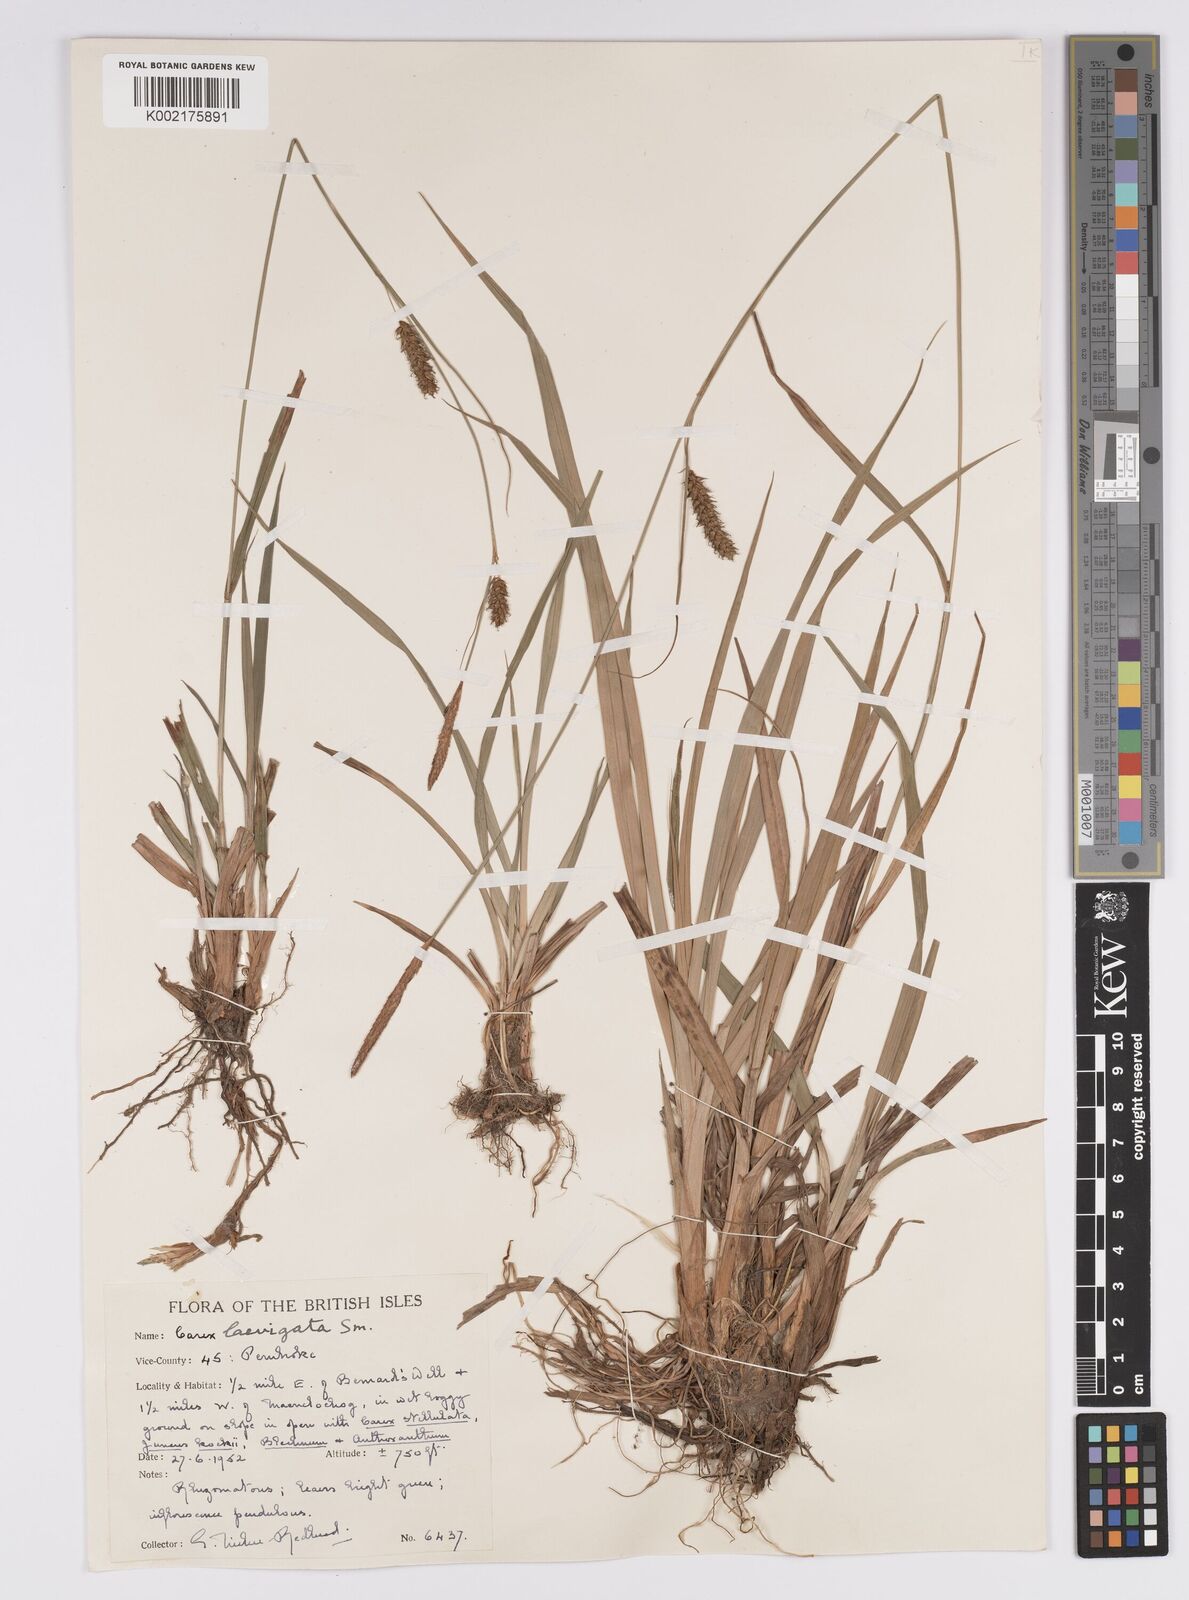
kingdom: Plantae
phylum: Tracheophyta
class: Liliopsida
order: Poales
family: Cyperaceae
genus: Carex
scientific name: Carex laevigata
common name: Smooth-stalked sedge
